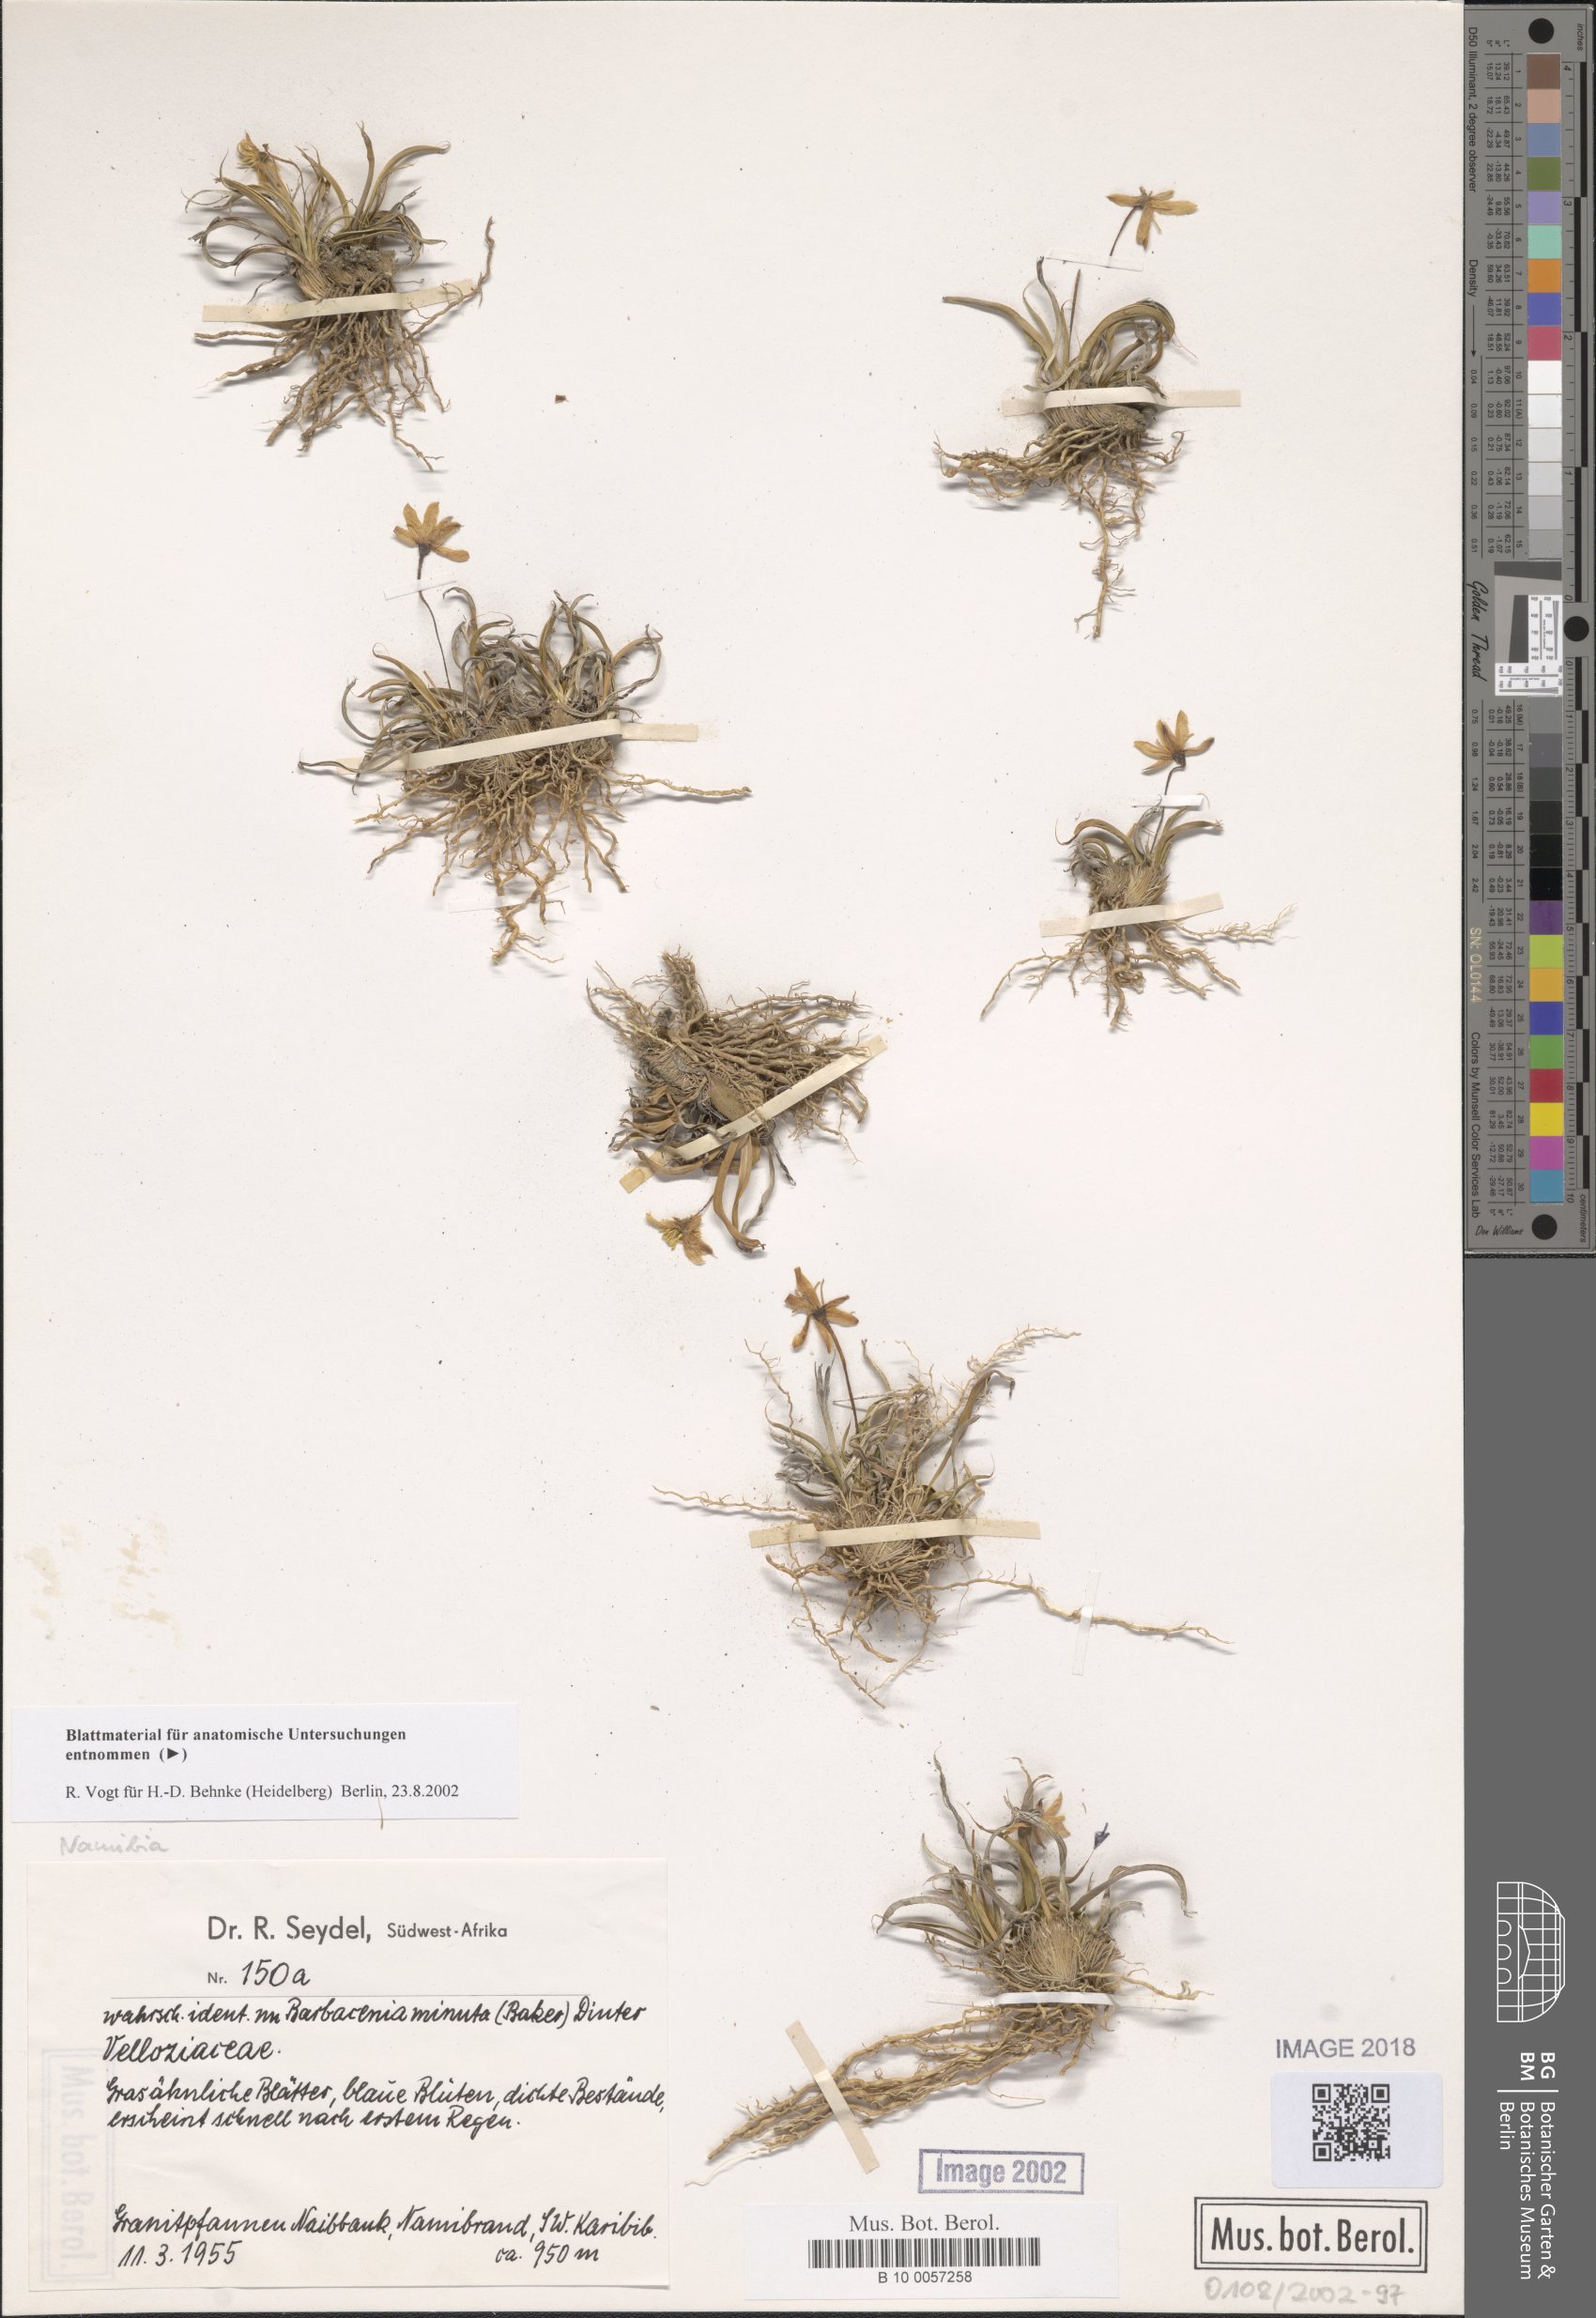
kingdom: Plantae
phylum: Tracheophyta
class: Liliopsida
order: Pandanales
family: Velloziaceae
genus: Xerophyta
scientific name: Xerophyta elegans
